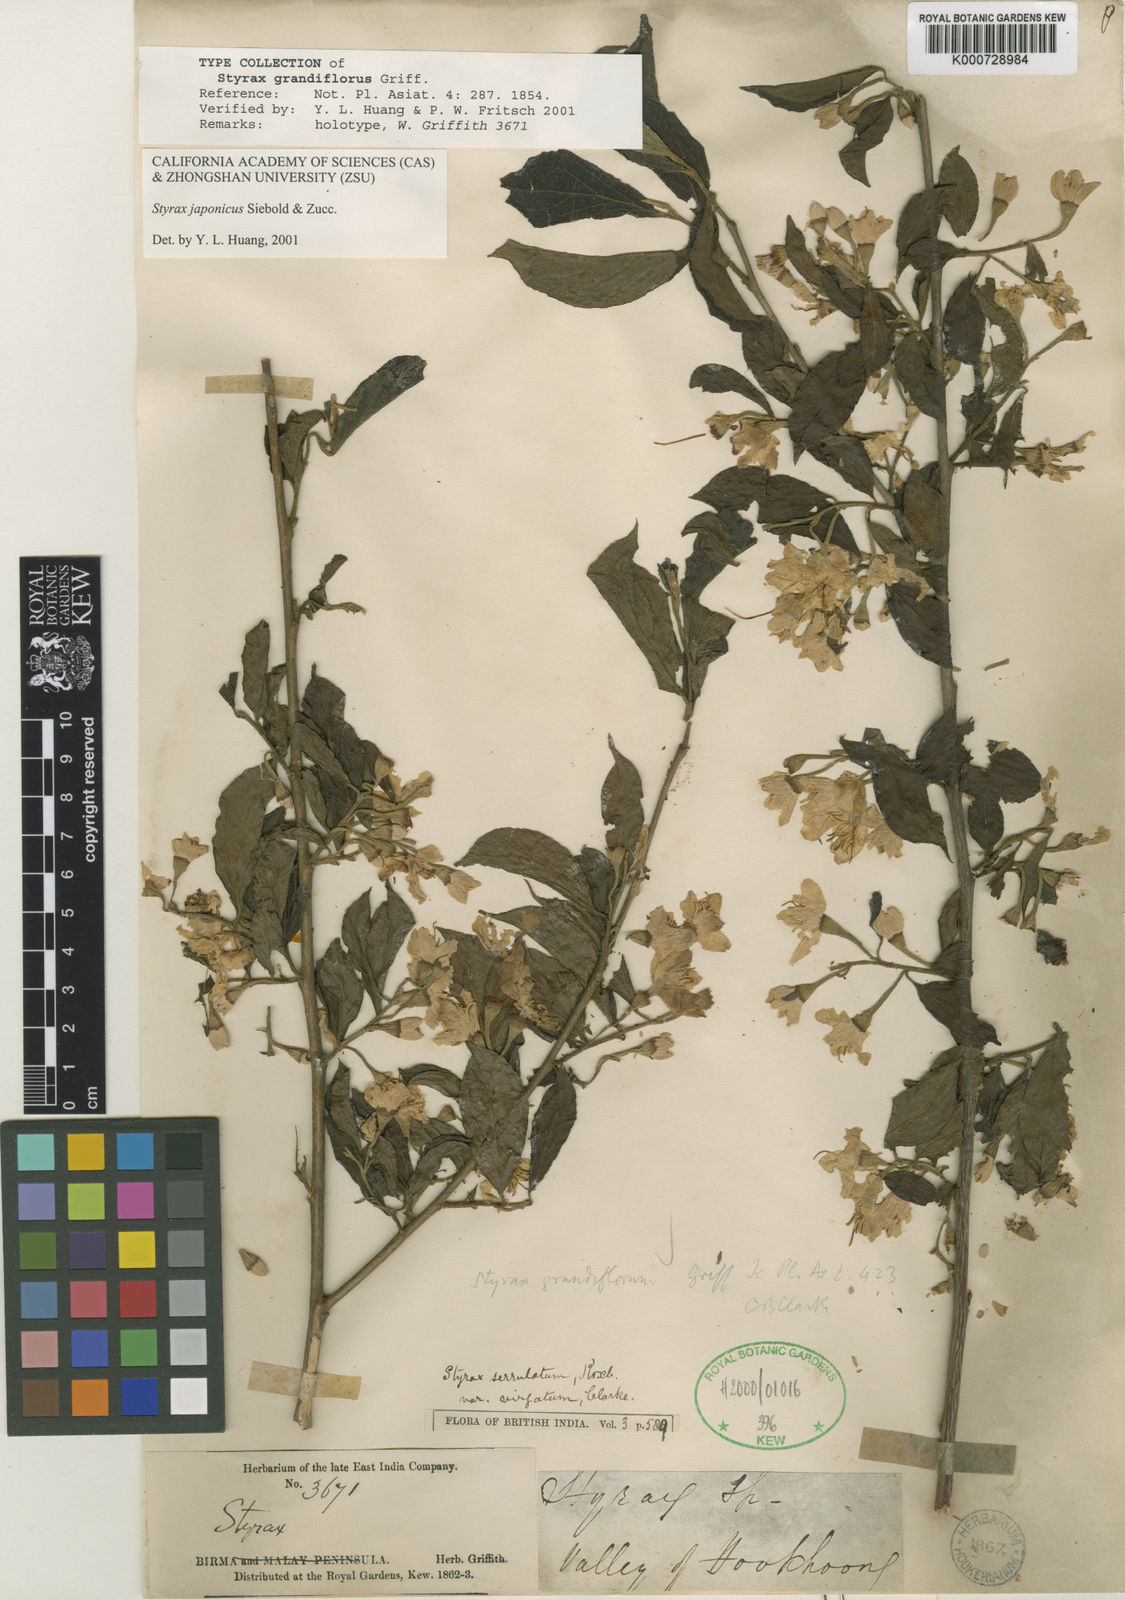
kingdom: Plantae
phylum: Tracheophyta
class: Magnoliopsida
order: Ericales
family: Styracaceae
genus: Styrax
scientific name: Styrax japonicus
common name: Japanese snowbell
